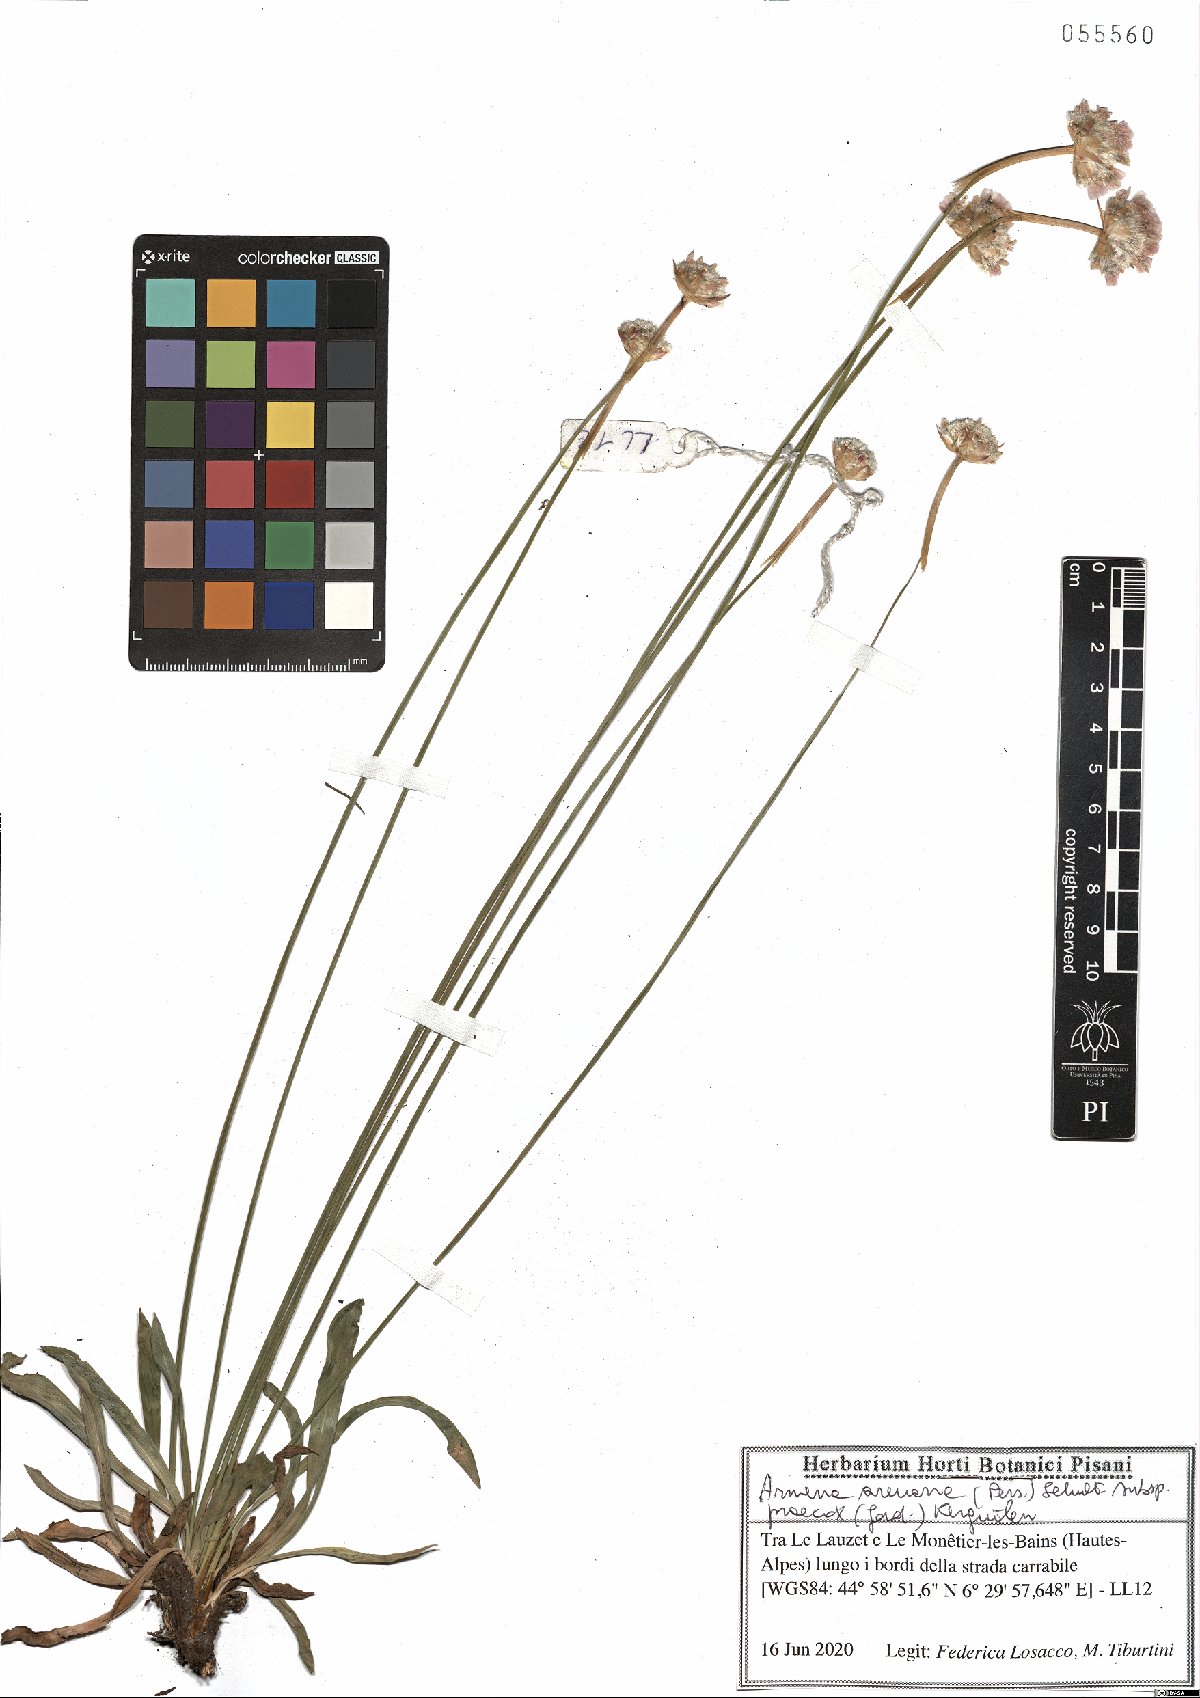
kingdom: Plantae
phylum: Tracheophyta
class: Magnoliopsida
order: Caryophyllales
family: Plumbaginaceae
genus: Armeria
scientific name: Armeria arenaria
